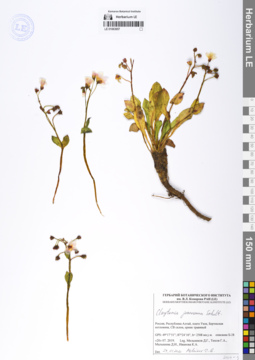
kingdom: Plantae
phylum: Tracheophyta
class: Magnoliopsida
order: Caryophyllales
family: Montiaceae
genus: Claytonia
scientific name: Claytonia joanneana
